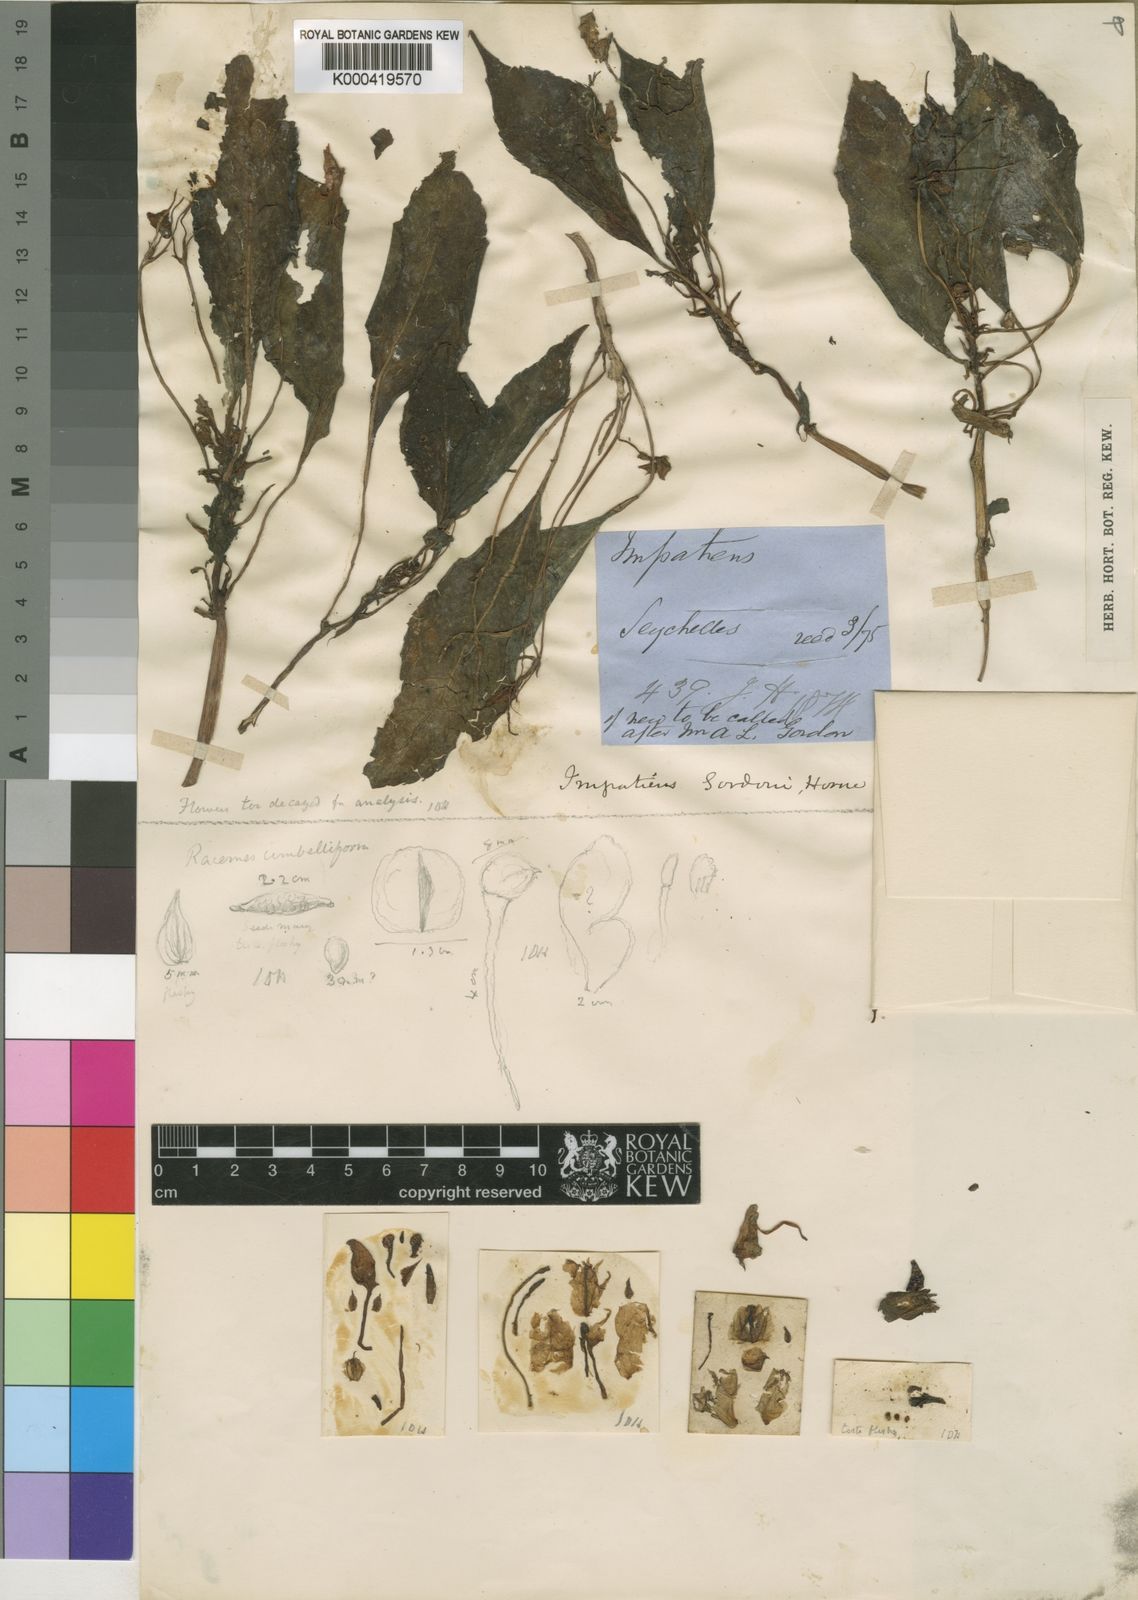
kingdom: Plantae
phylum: Tracheophyta
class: Magnoliopsida
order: Ericales
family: Balsaminaceae
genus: Impatiens
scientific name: Impatiens
